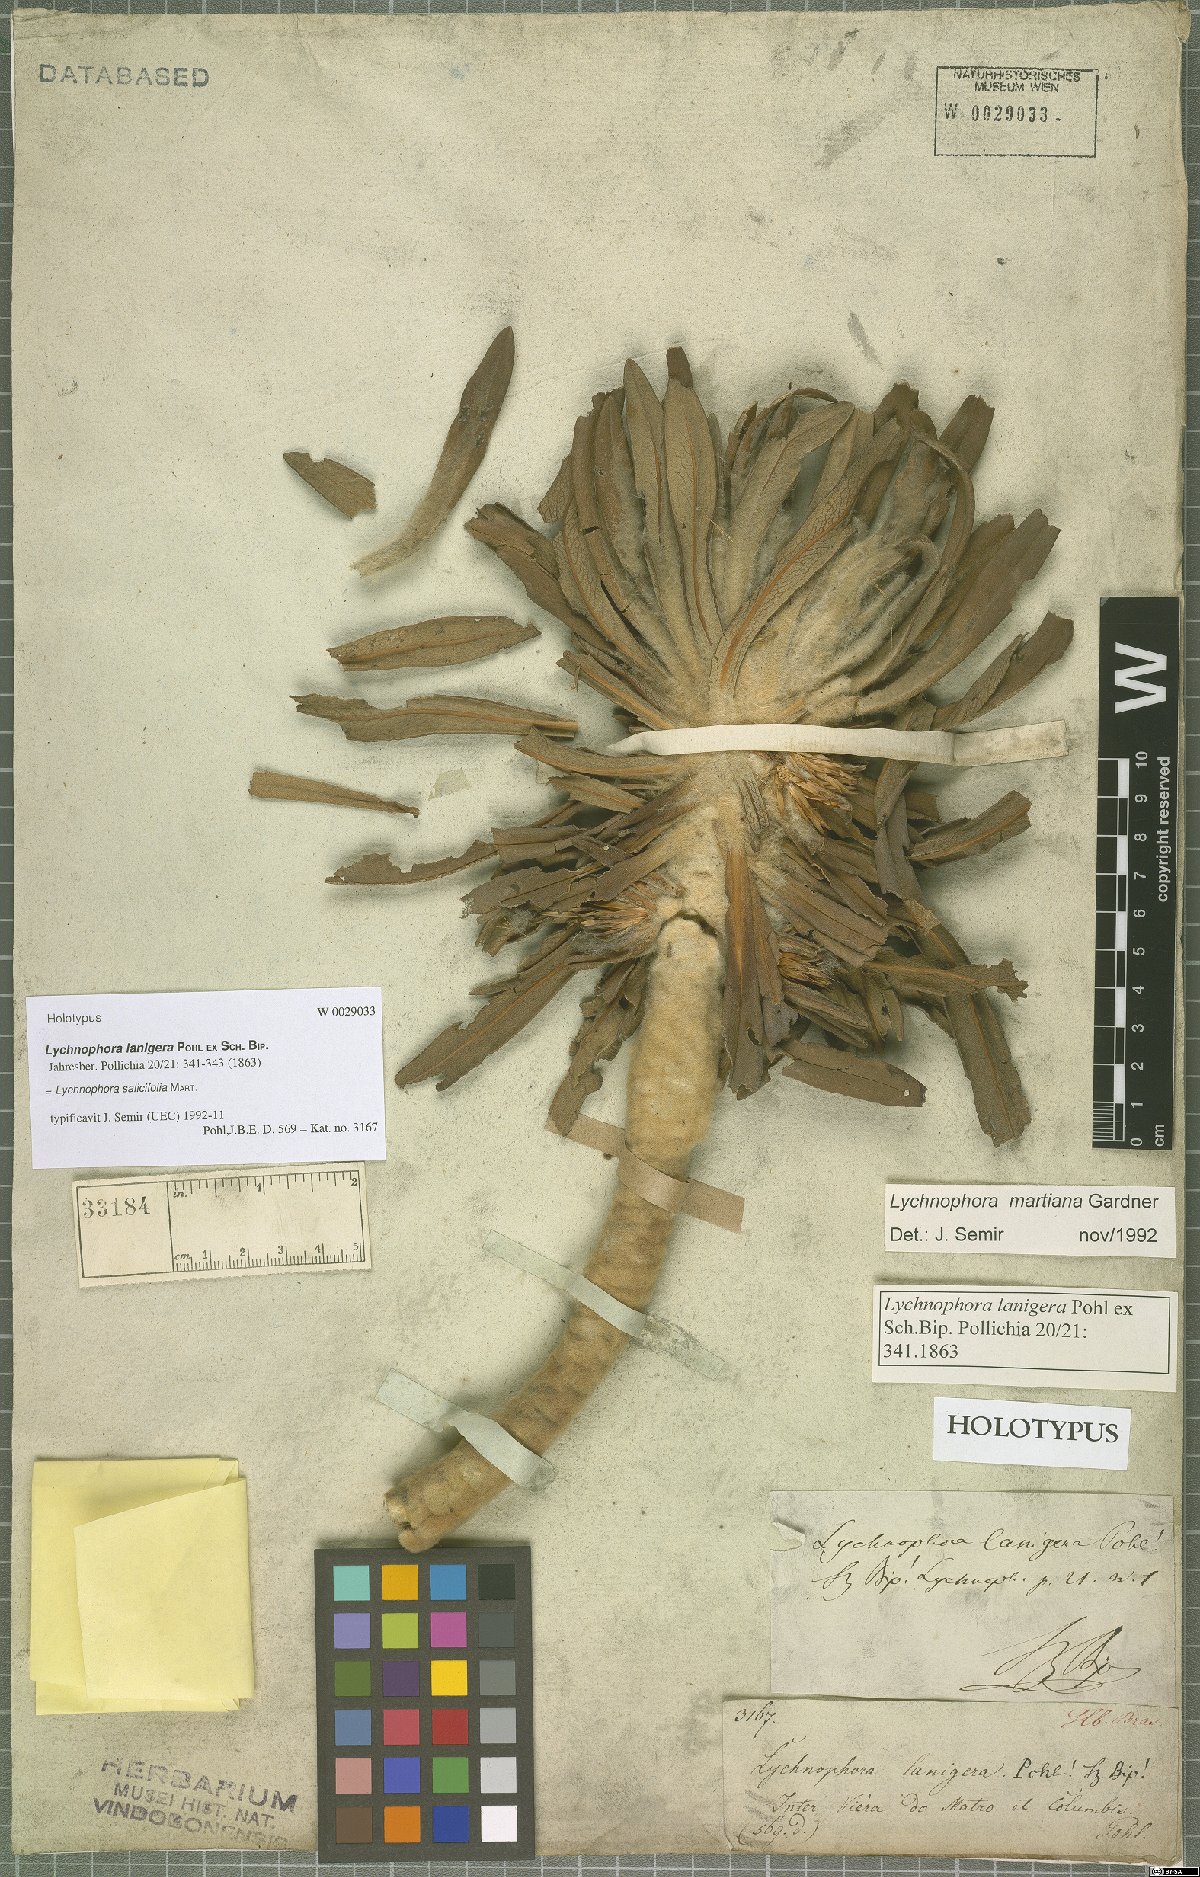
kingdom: Plantae
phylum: Tracheophyta
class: Magnoliopsida
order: Asterales
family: Asteraceae
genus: Lychnophora
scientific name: Lychnophora salicifolia
